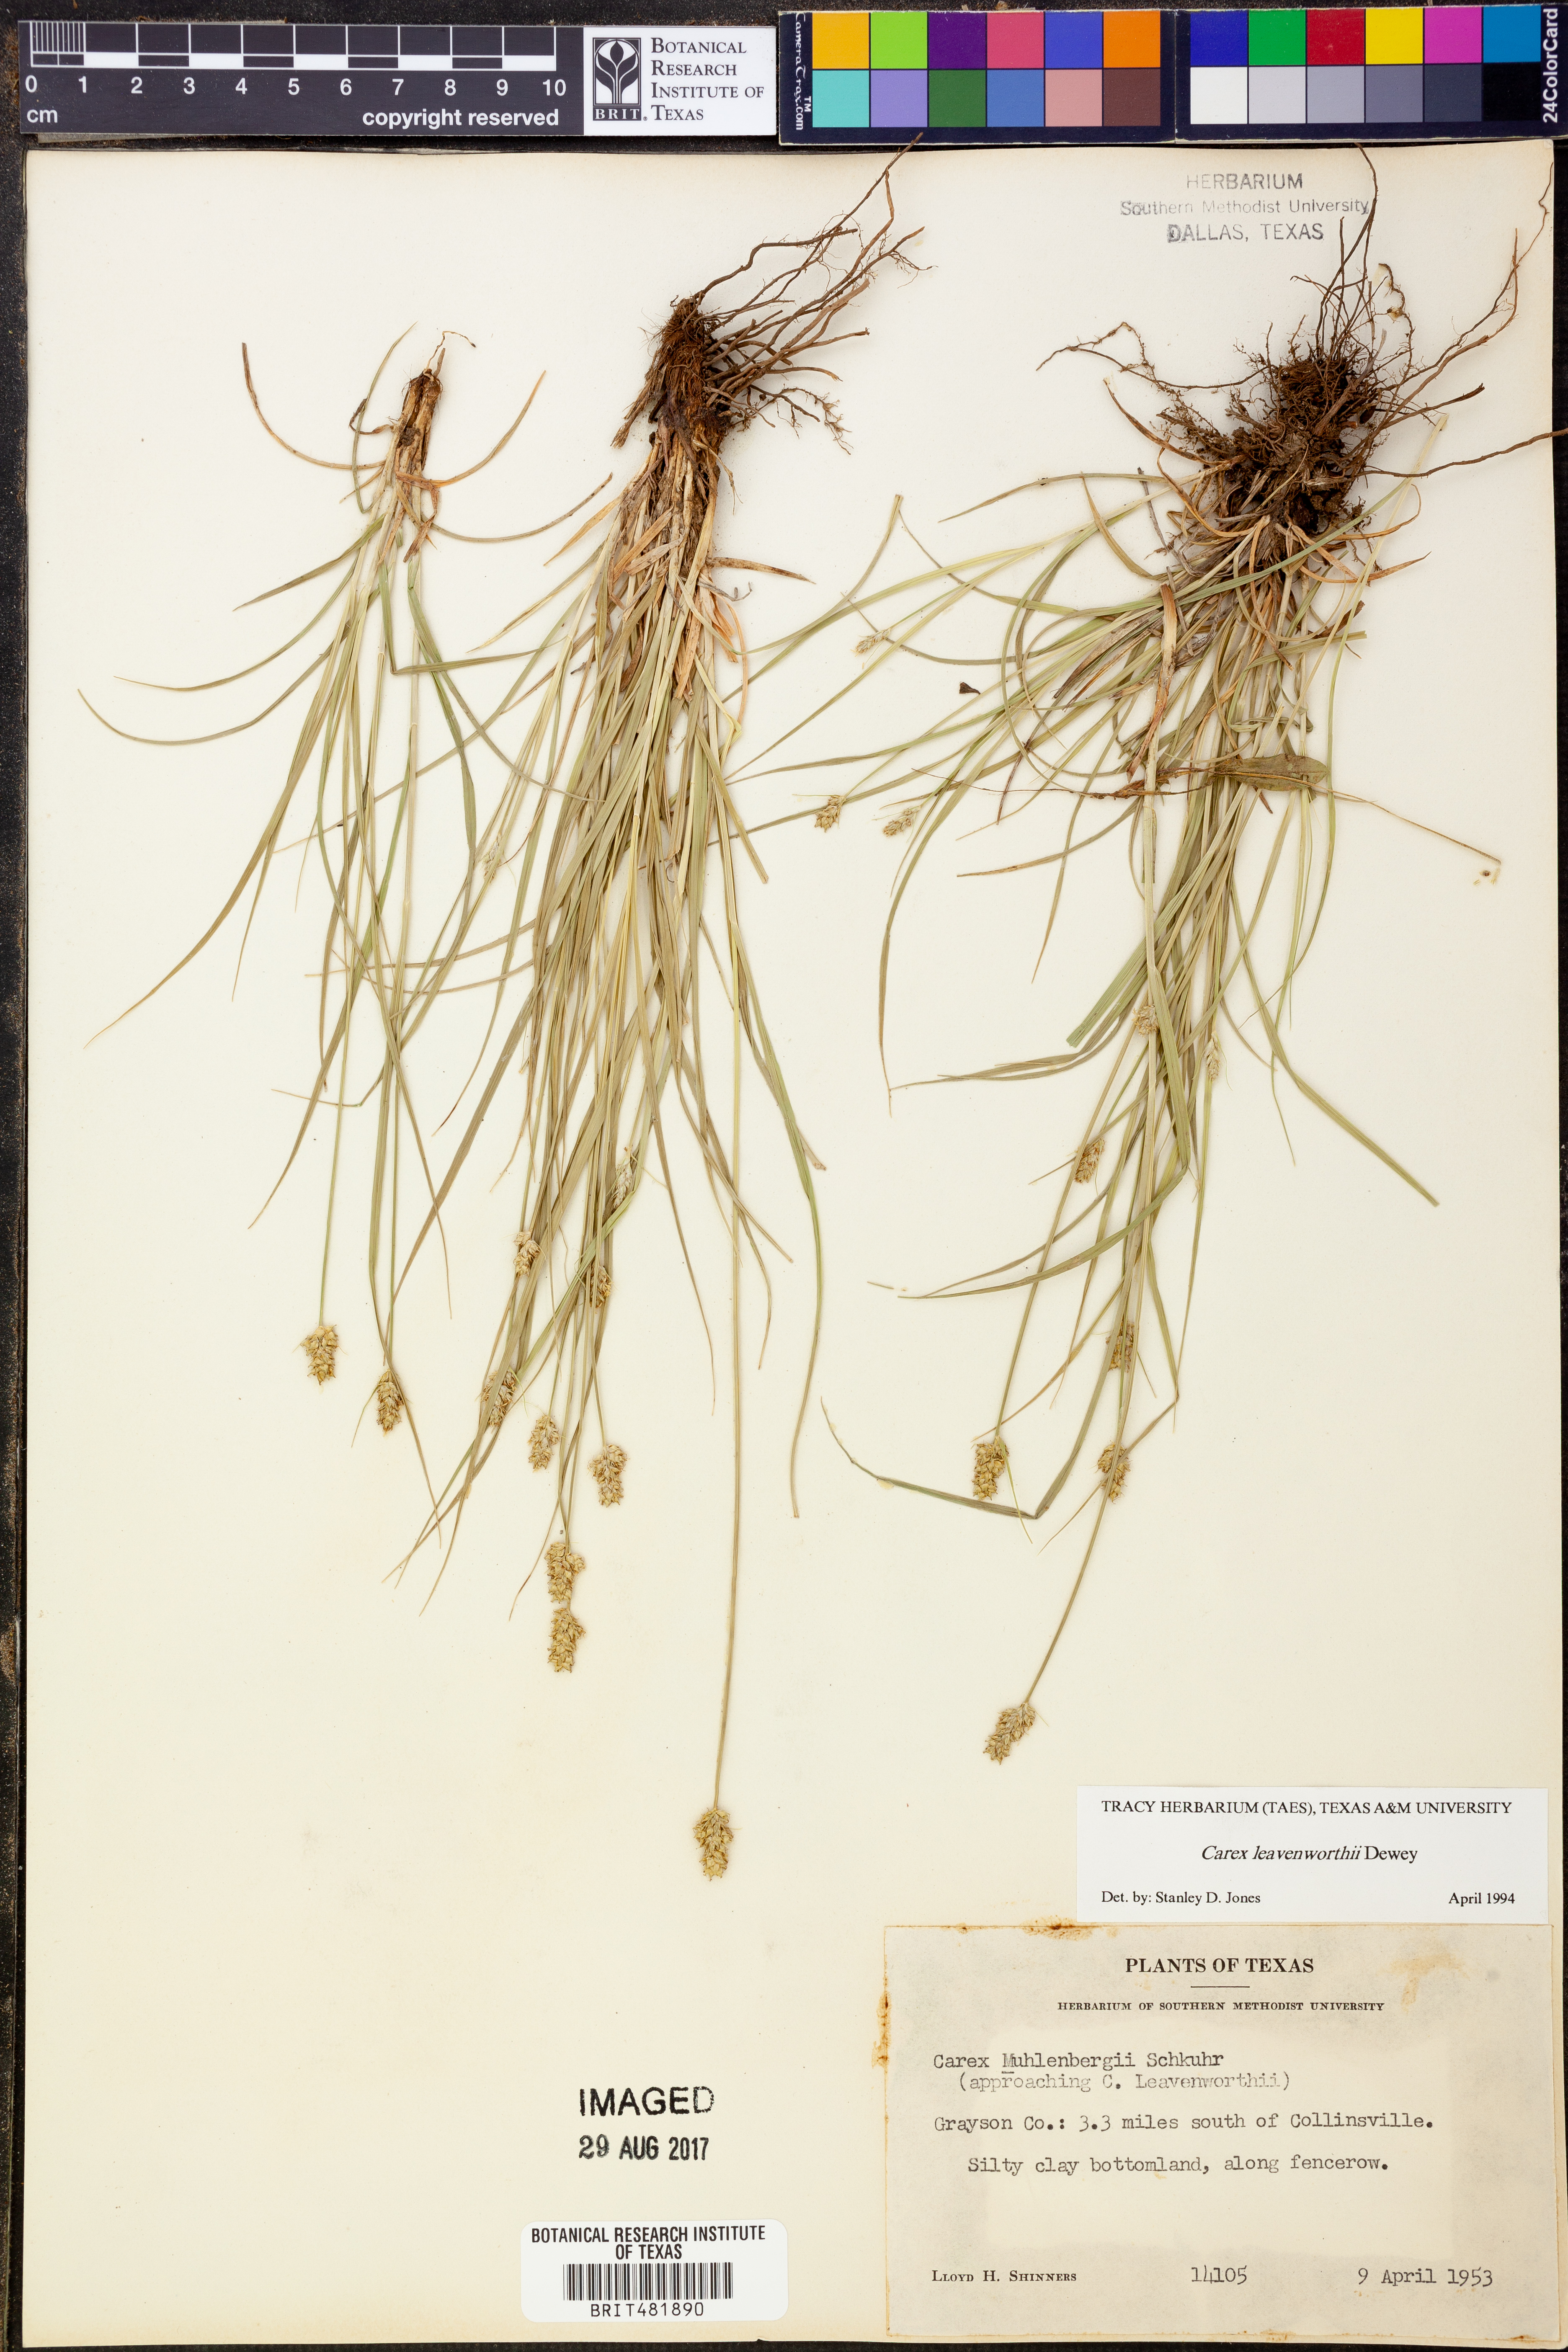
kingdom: Plantae
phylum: Tracheophyta
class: Liliopsida
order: Poales
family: Cyperaceae
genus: Carex
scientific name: Carex leavenworthii
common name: Leavenworth's bracted sedge
